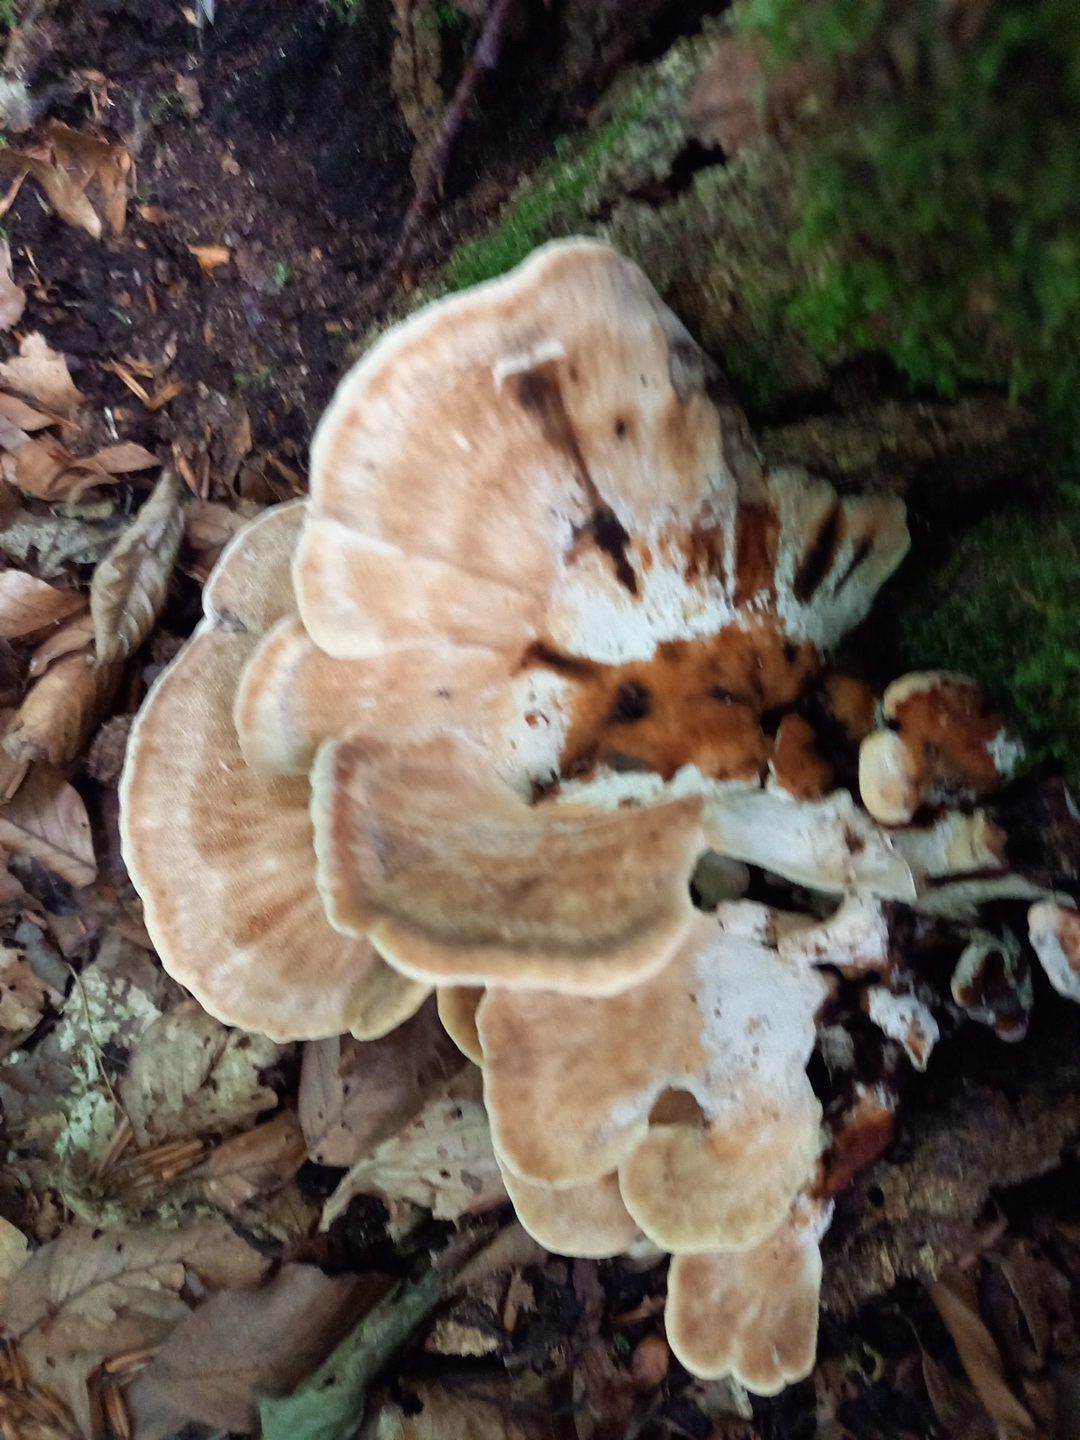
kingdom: Fungi
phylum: Basidiomycota
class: Agaricomycetes
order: Polyporales
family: Meripilaceae
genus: Meripilus
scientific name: Meripilus giganteus
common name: kæmpeporesvamp
